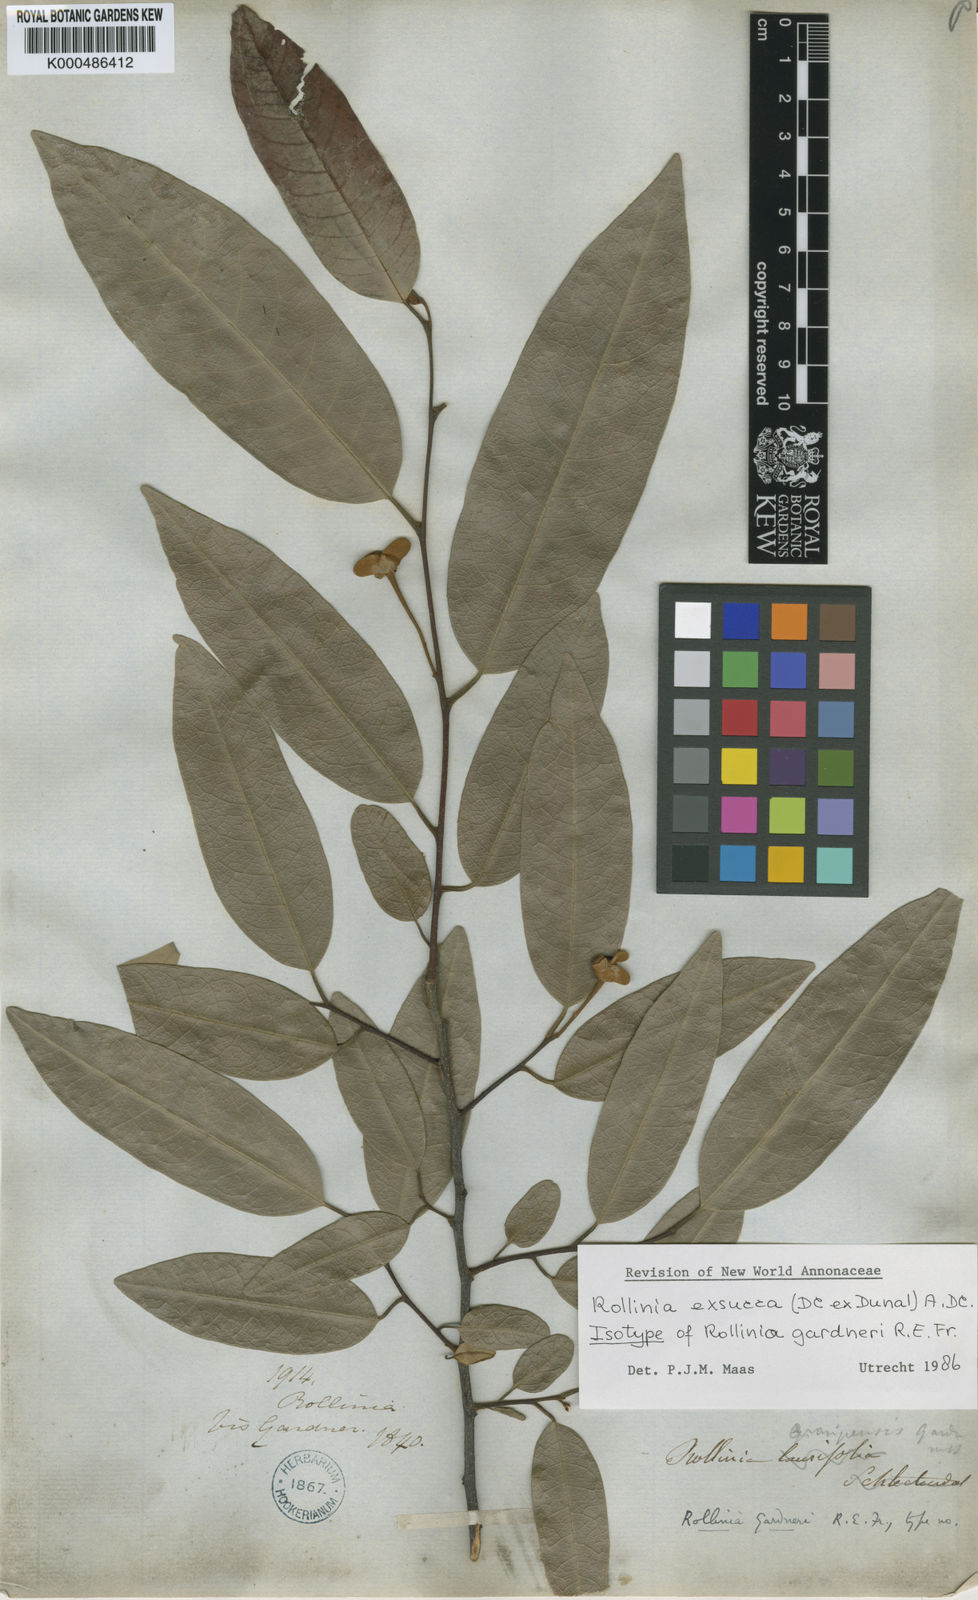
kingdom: Plantae
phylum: Tracheophyta
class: Magnoliopsida
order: Magnoliales
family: Annonaceae
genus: Annona
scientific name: Annona
